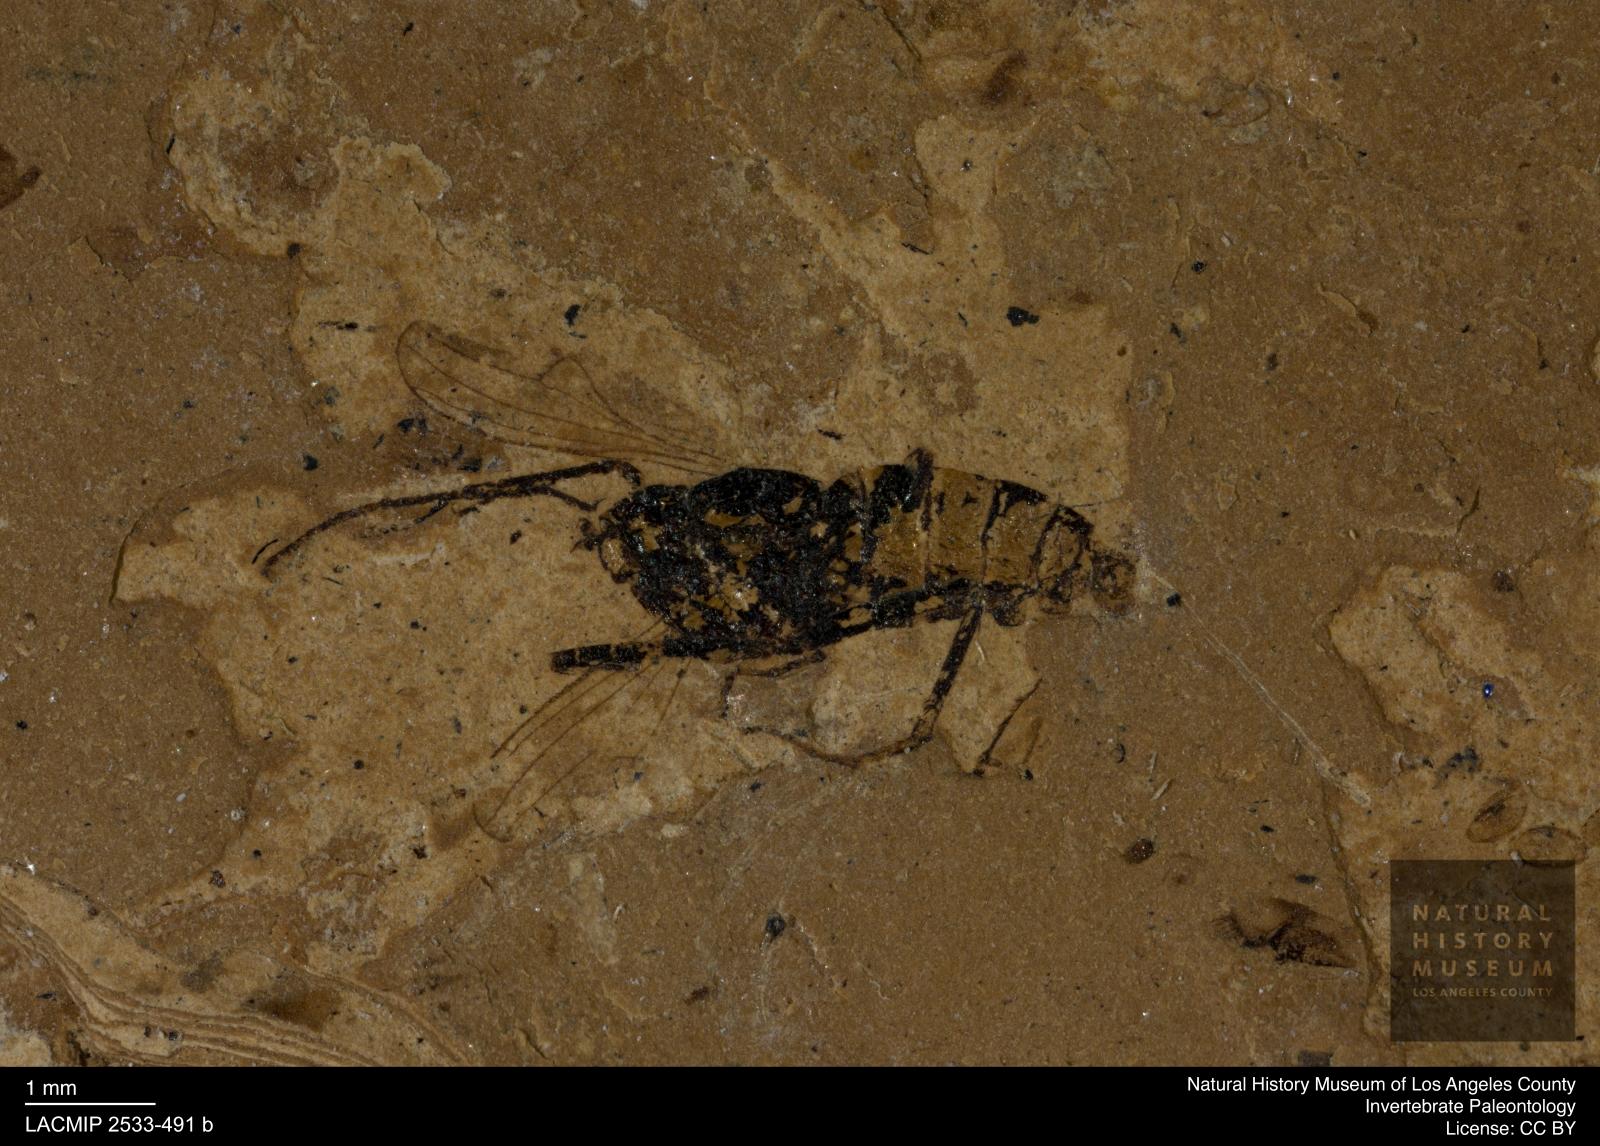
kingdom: Animalia
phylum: Arthropoda
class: Insecta
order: Diptera
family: Dolichopodidae
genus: Oncopygius
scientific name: Oncopygius oligocaenicus
